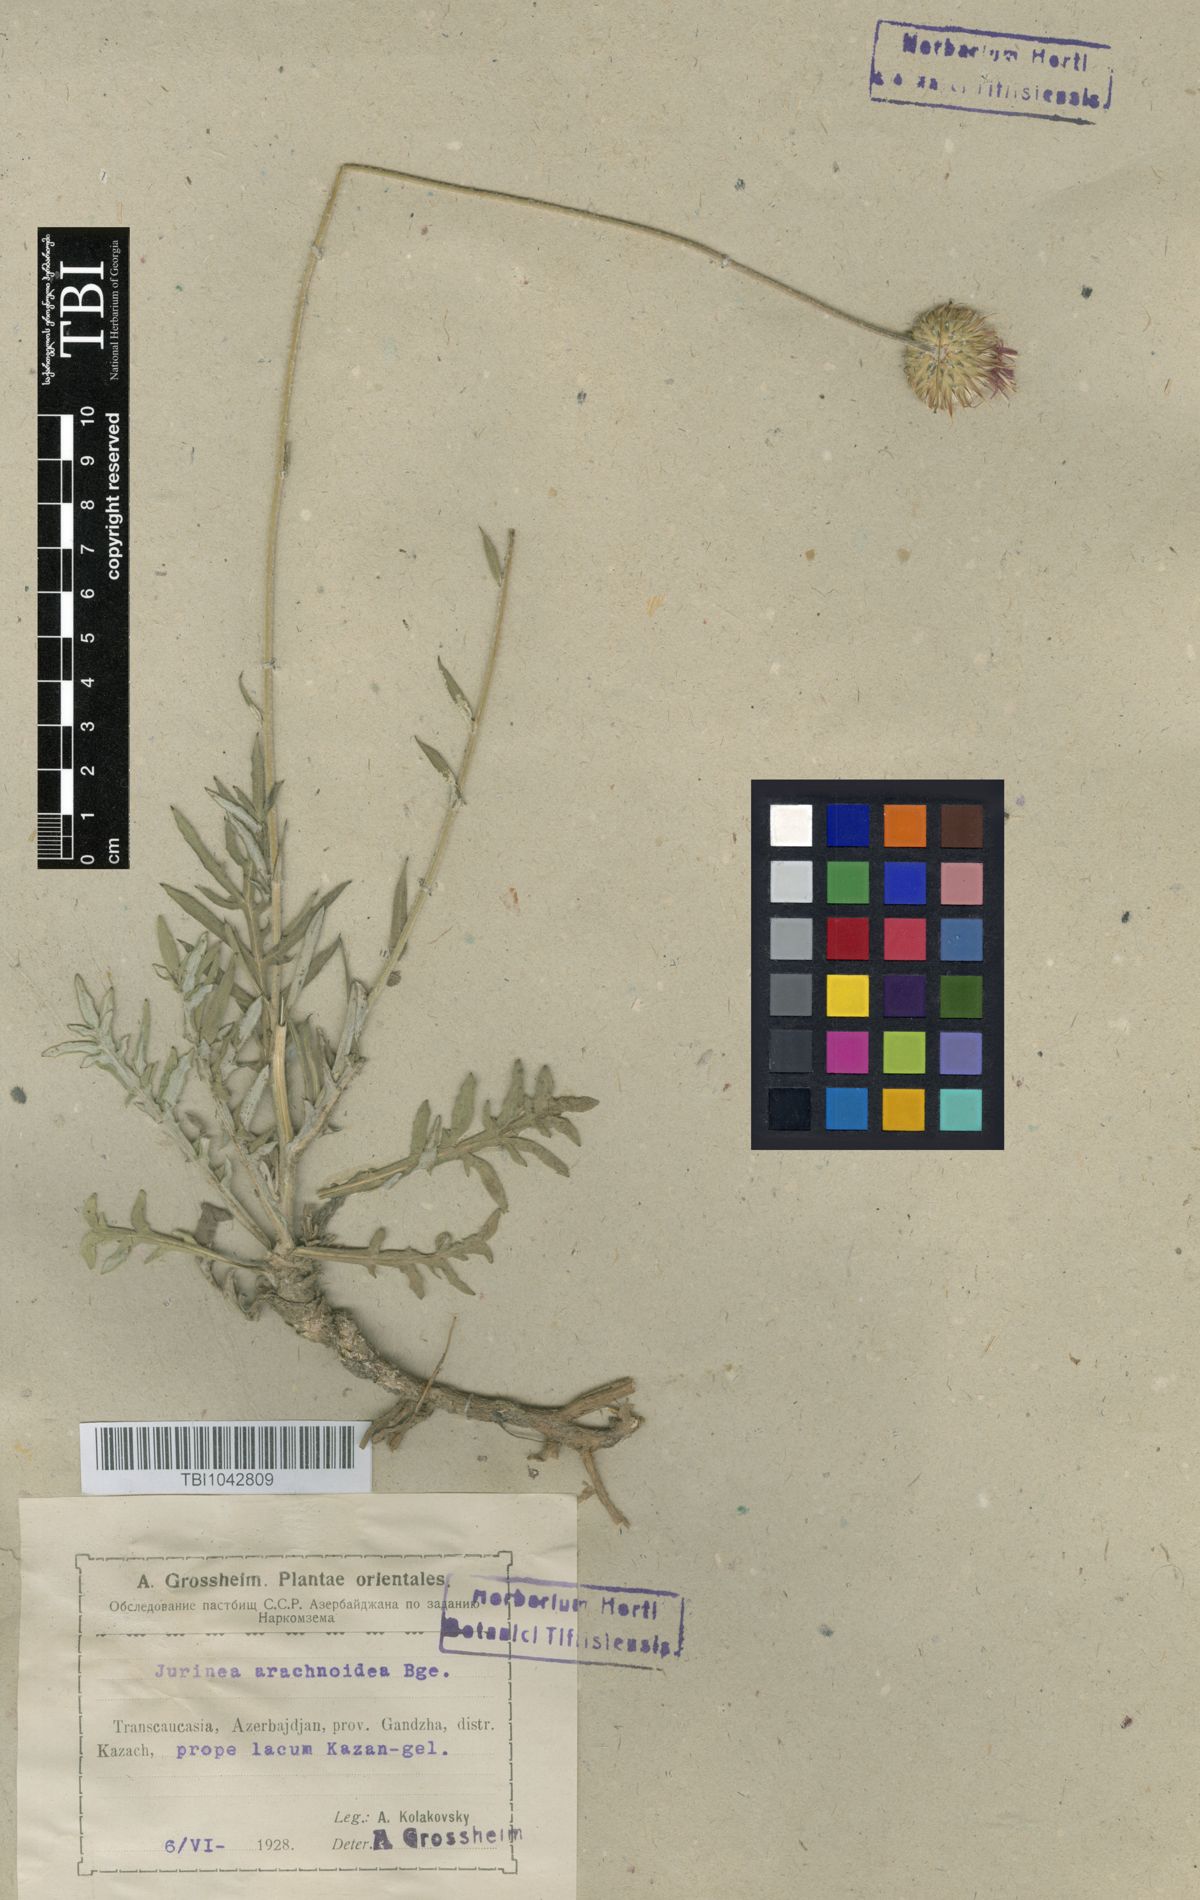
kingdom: Plantae
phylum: Tracheophyta
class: Magnoliopsida
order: Asterales
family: Asteraceae
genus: Jurinea
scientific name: Jurinea blanda
